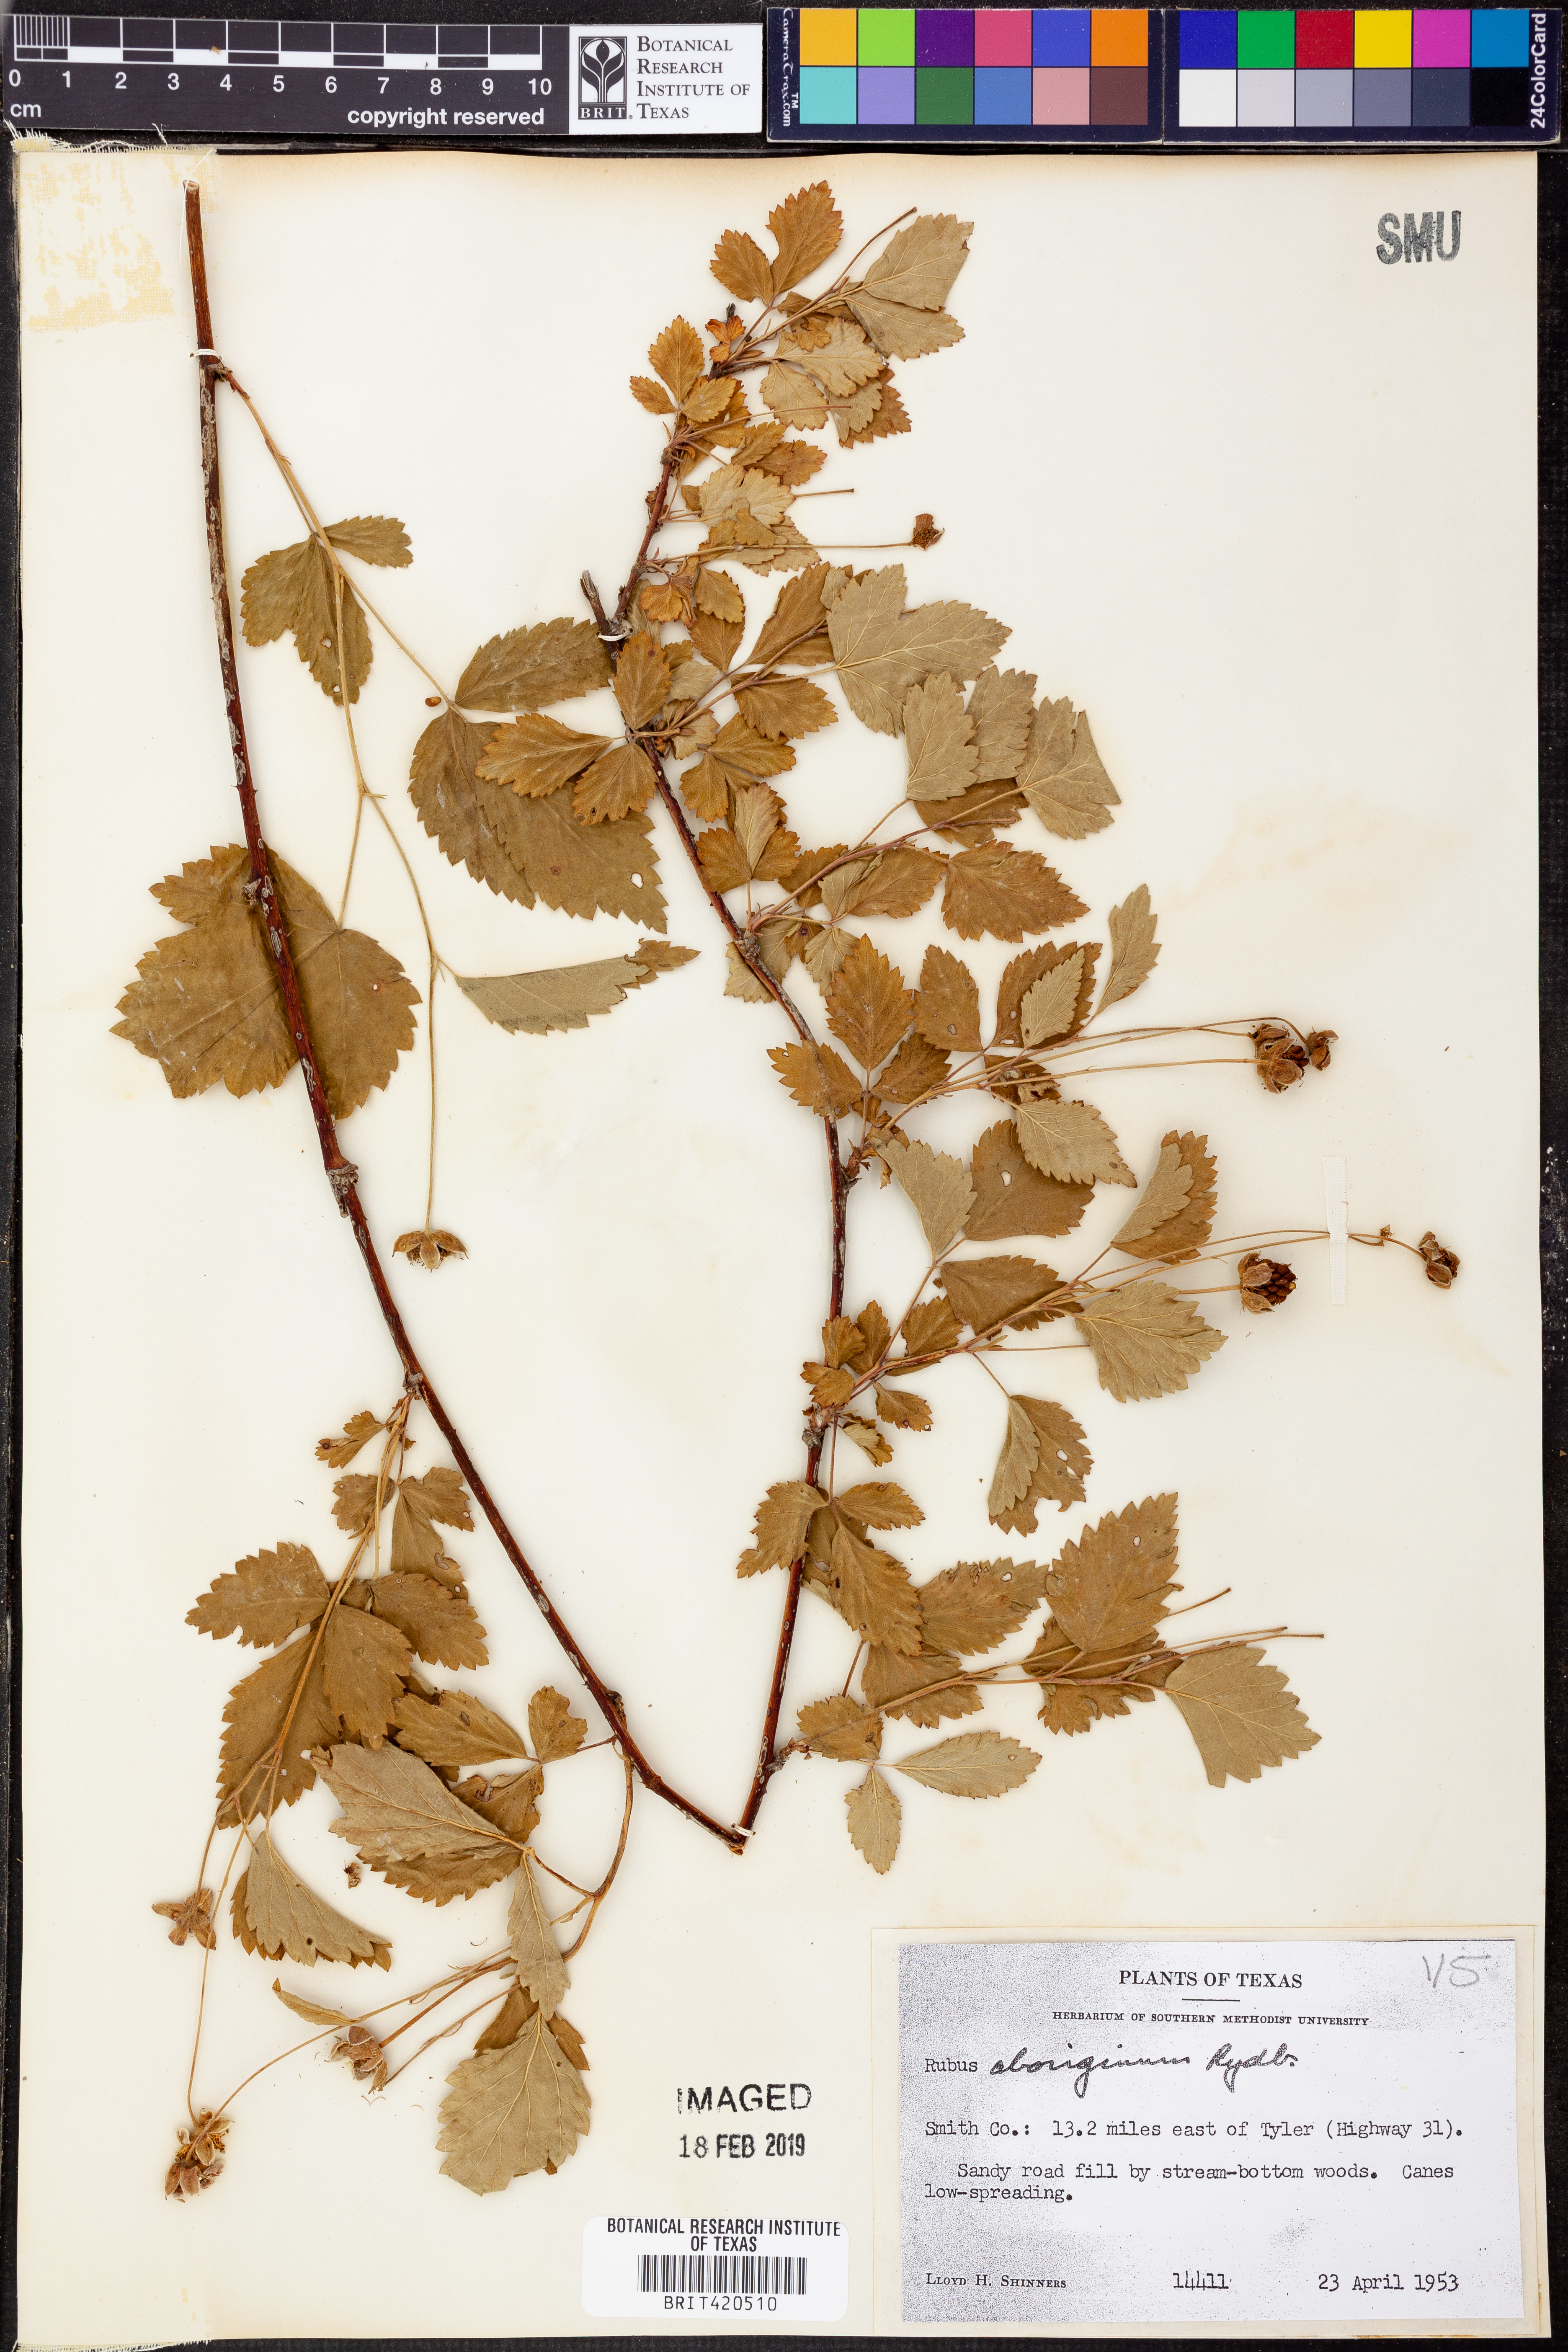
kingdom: Plantae
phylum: Tracheophyta
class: Magnoliopsida
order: Rosales
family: Rosaceae
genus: Rubus
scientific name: Rubus aboriginum
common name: Mayes dewberry
